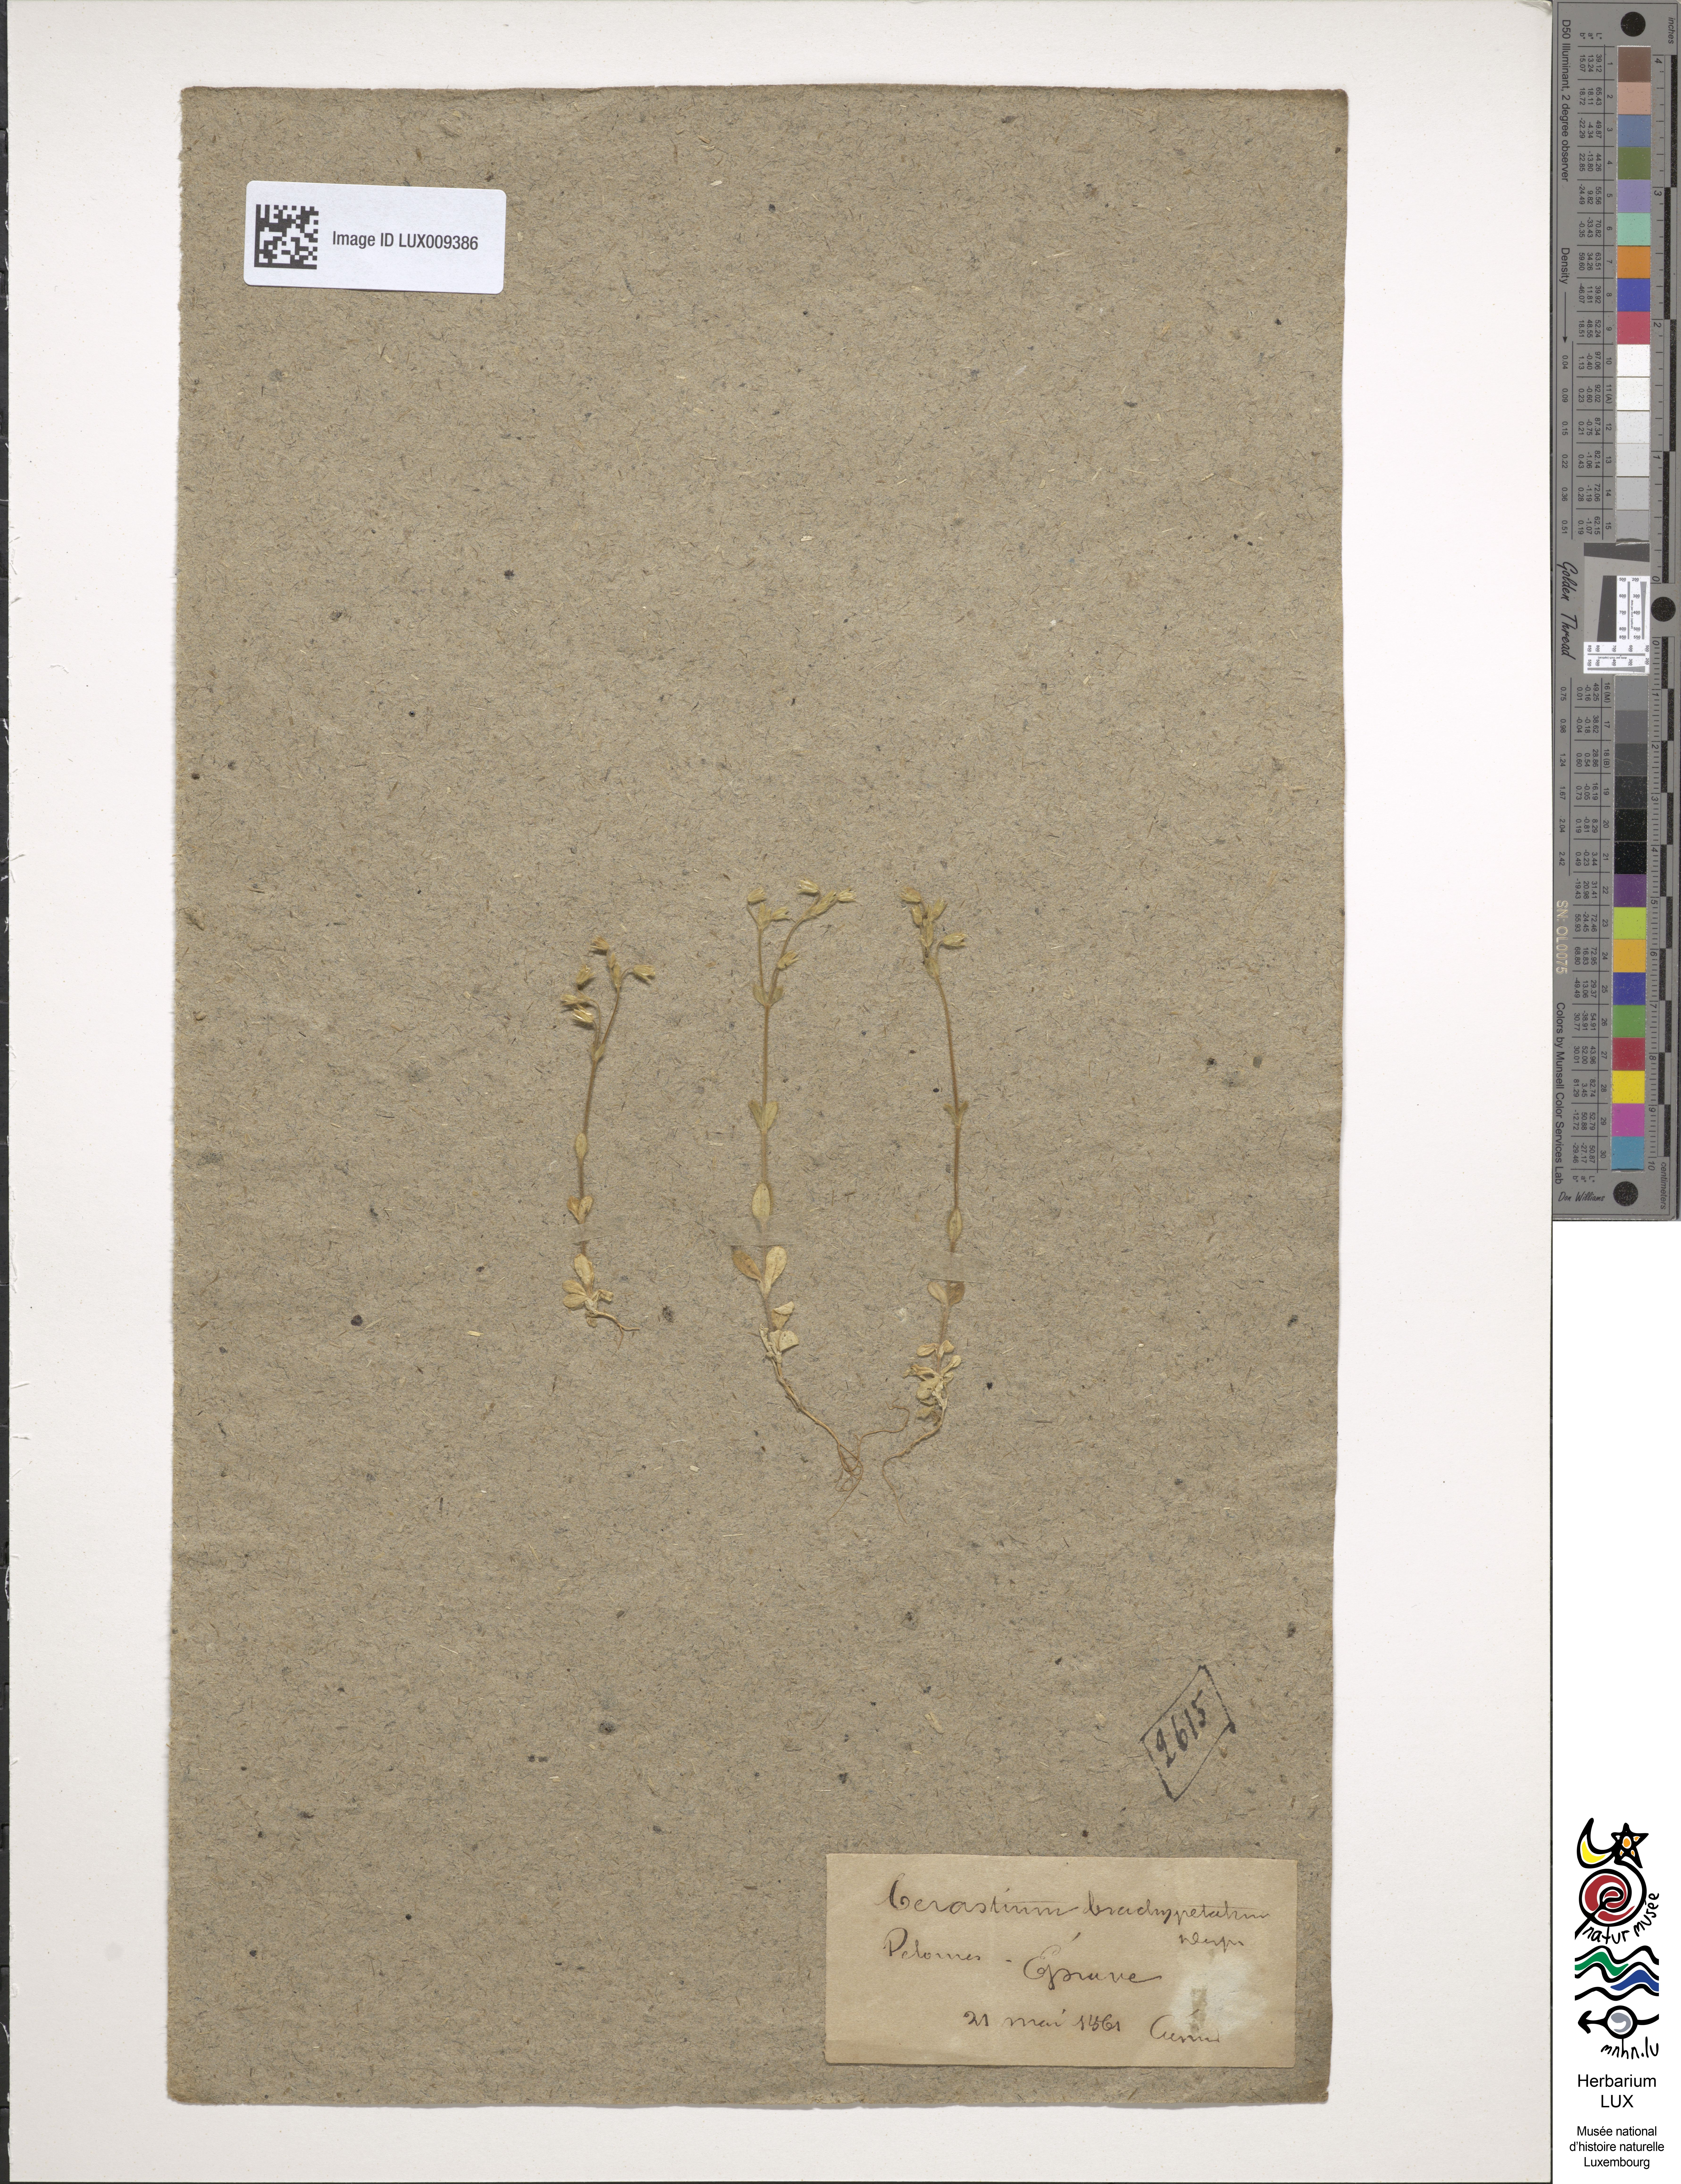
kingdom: Plantae
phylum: Tracheophyta
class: Magnoliopsida
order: Caryophyllales
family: Caryophyllaceae
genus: Cerastium
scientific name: Cerastium brachypetalum
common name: Grey mouse-ear
